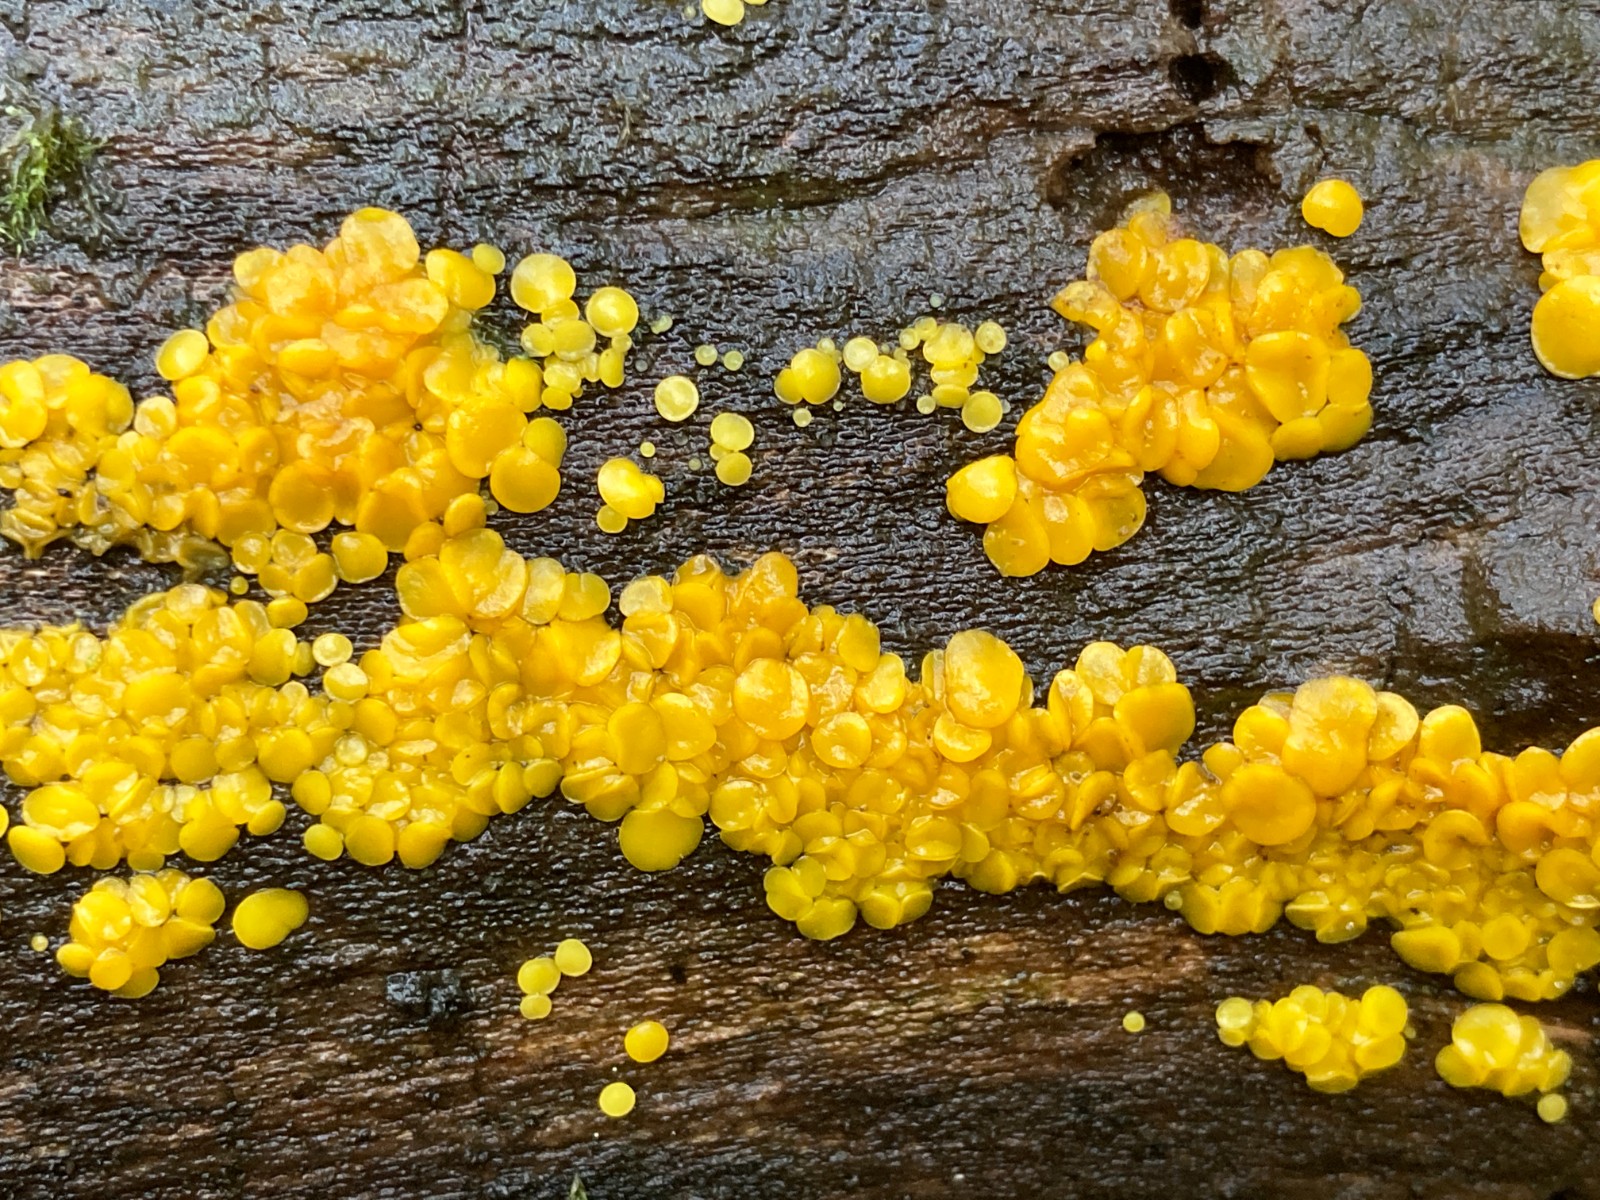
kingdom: Fungi
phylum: Ascomycota
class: Leotiomycetes
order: Helotiales
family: Pezizellaceae
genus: Calycina
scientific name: Calycina citrina
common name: almindelig gulskive
